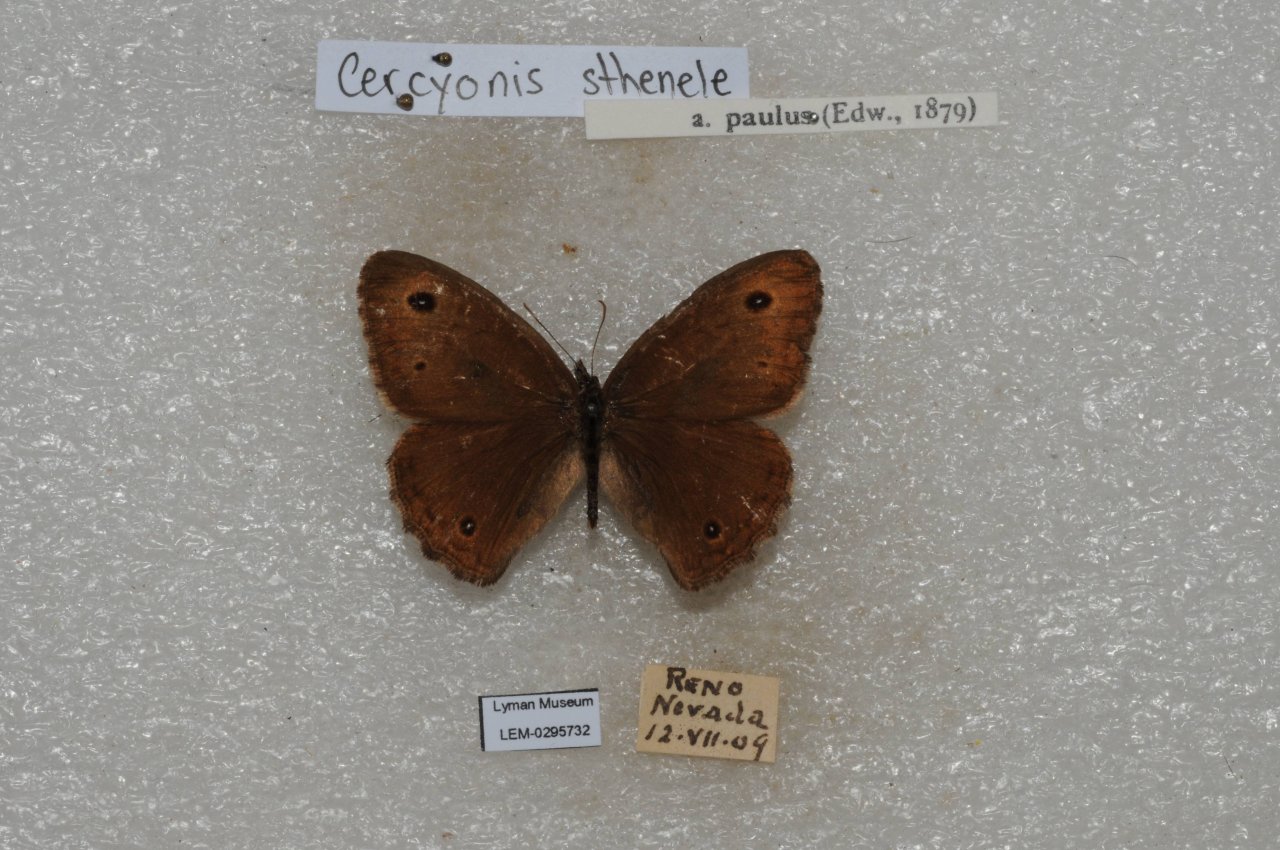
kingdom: Animalia
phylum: Arthropoda
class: Insecta
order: Lepidoptera
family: Nymphalidae
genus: Cercyonis
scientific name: Cercyonis sthenele
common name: Great Basin Wood-Nymph
